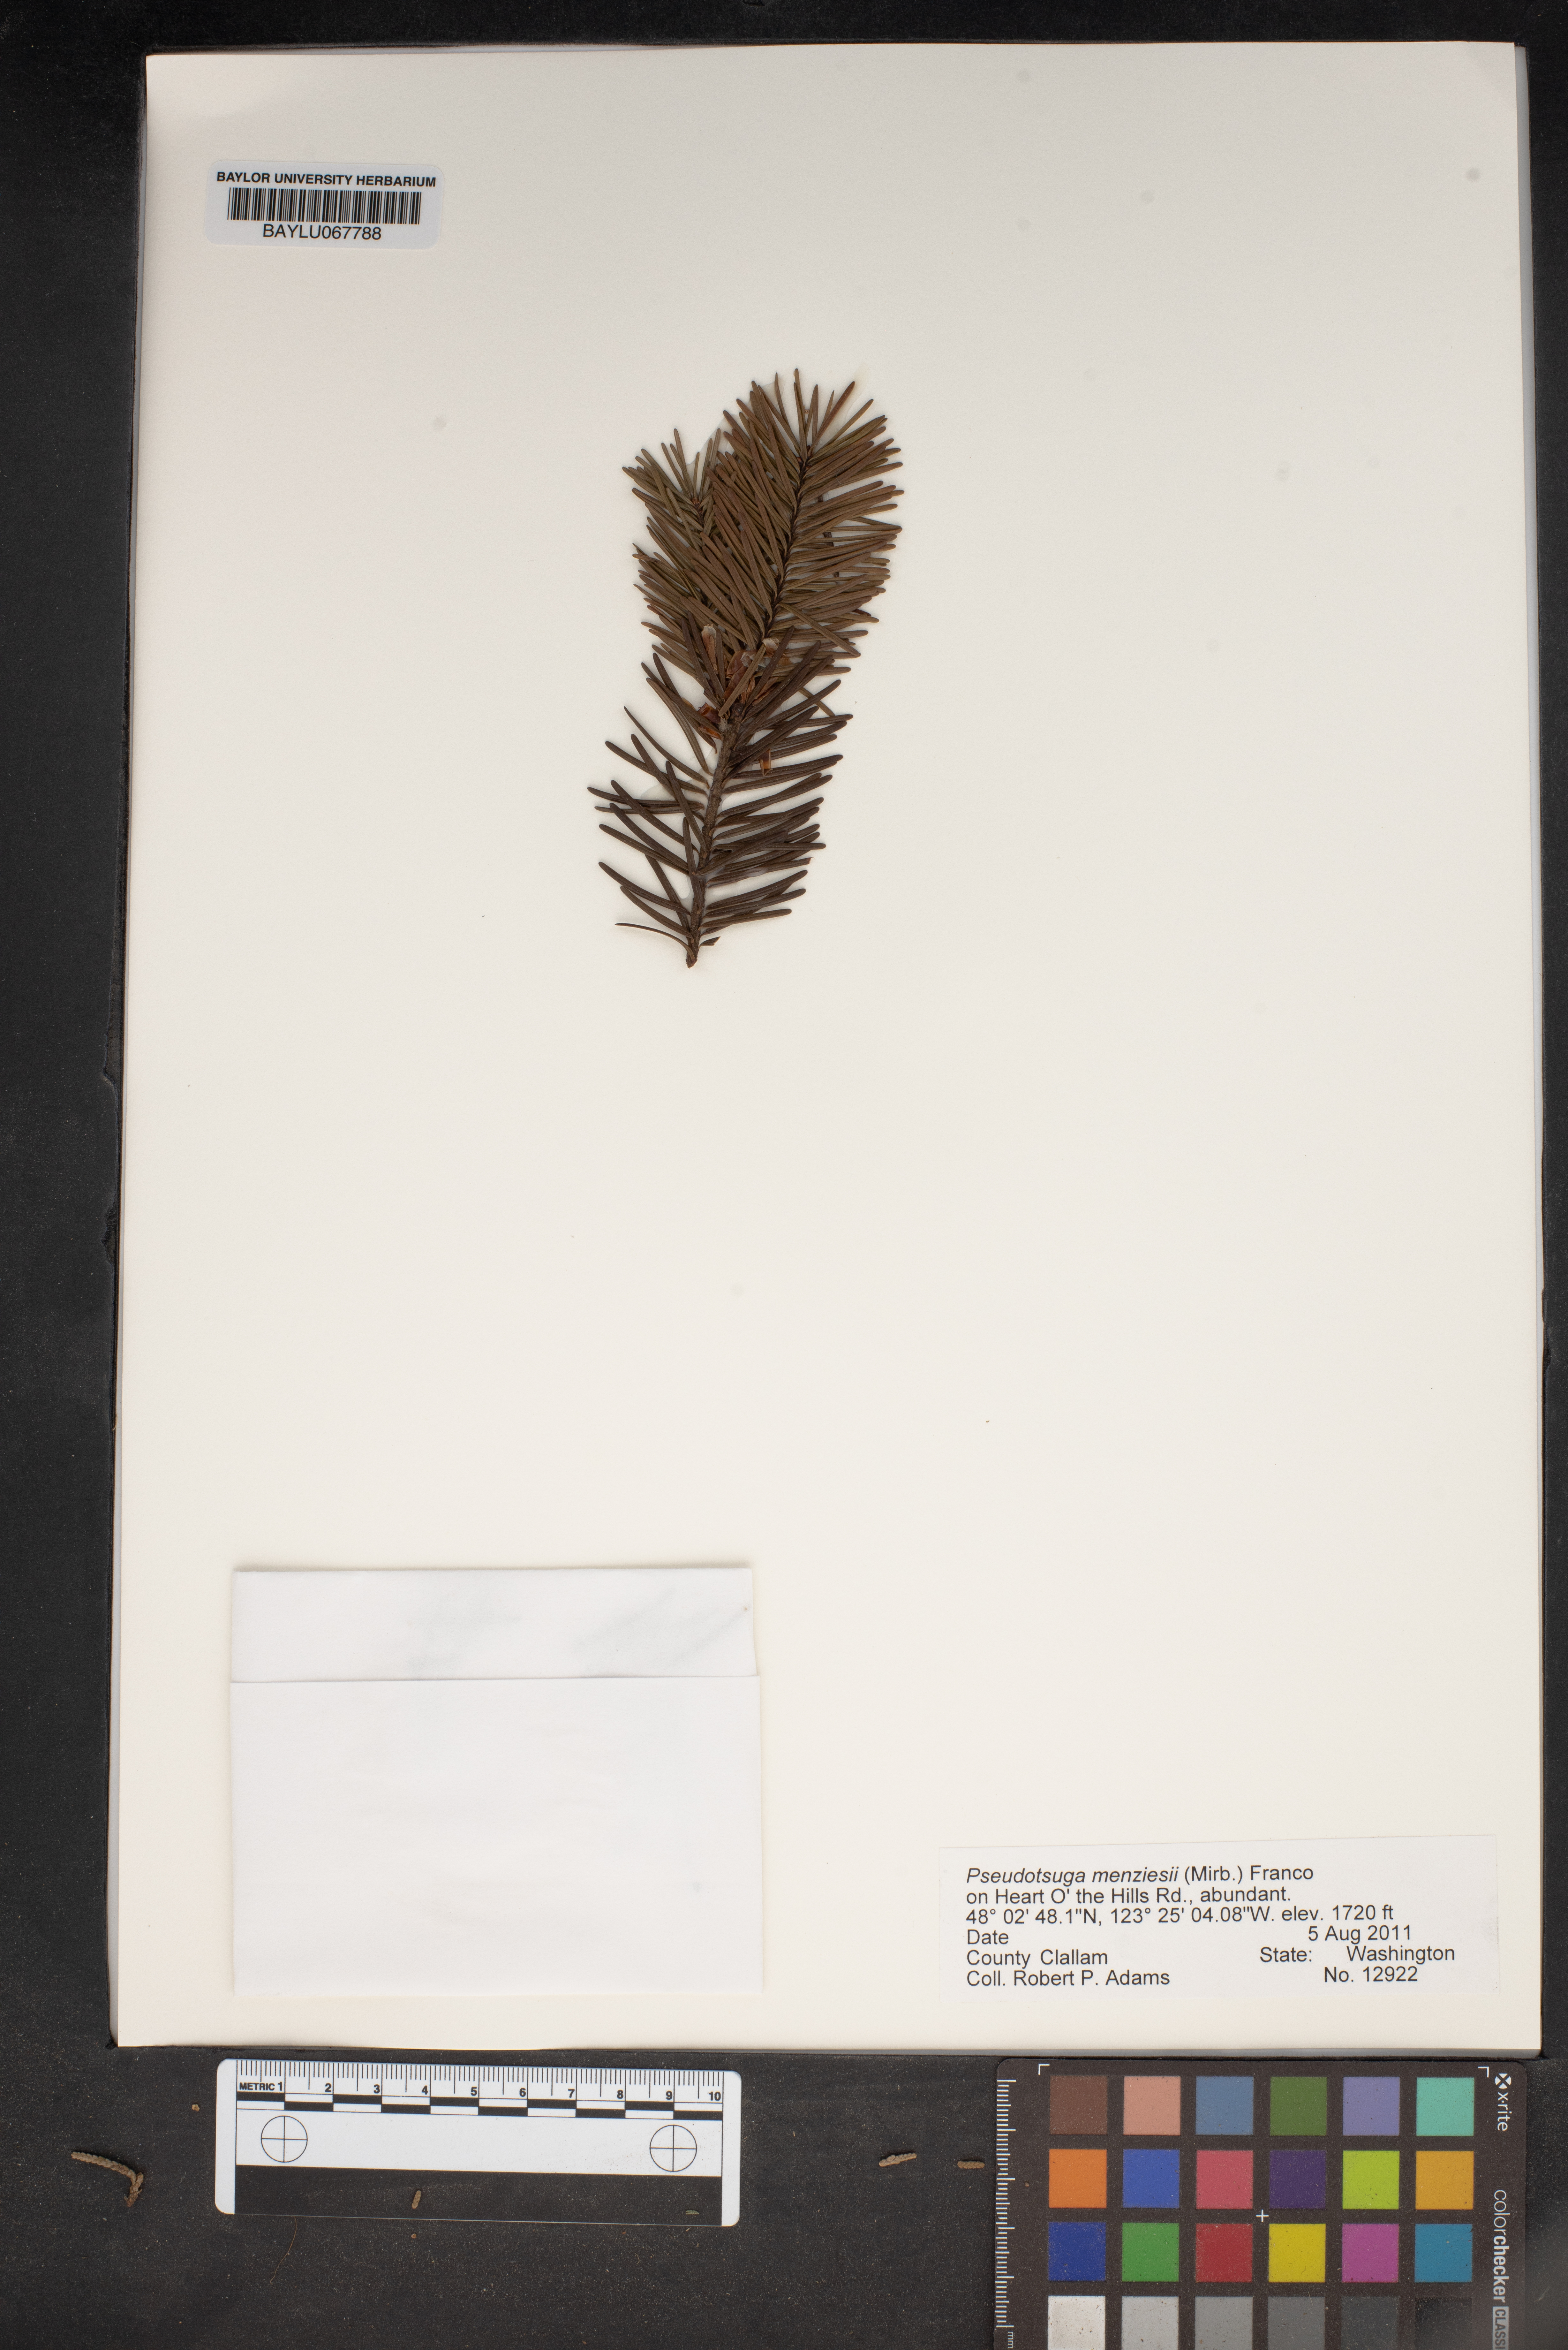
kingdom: Plantae
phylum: Tracheophyta
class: Pinopsida
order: Pinales
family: Pinaceae
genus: Pseudotsuga
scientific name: Pseudotsuga menziesii
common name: Douglas fir
